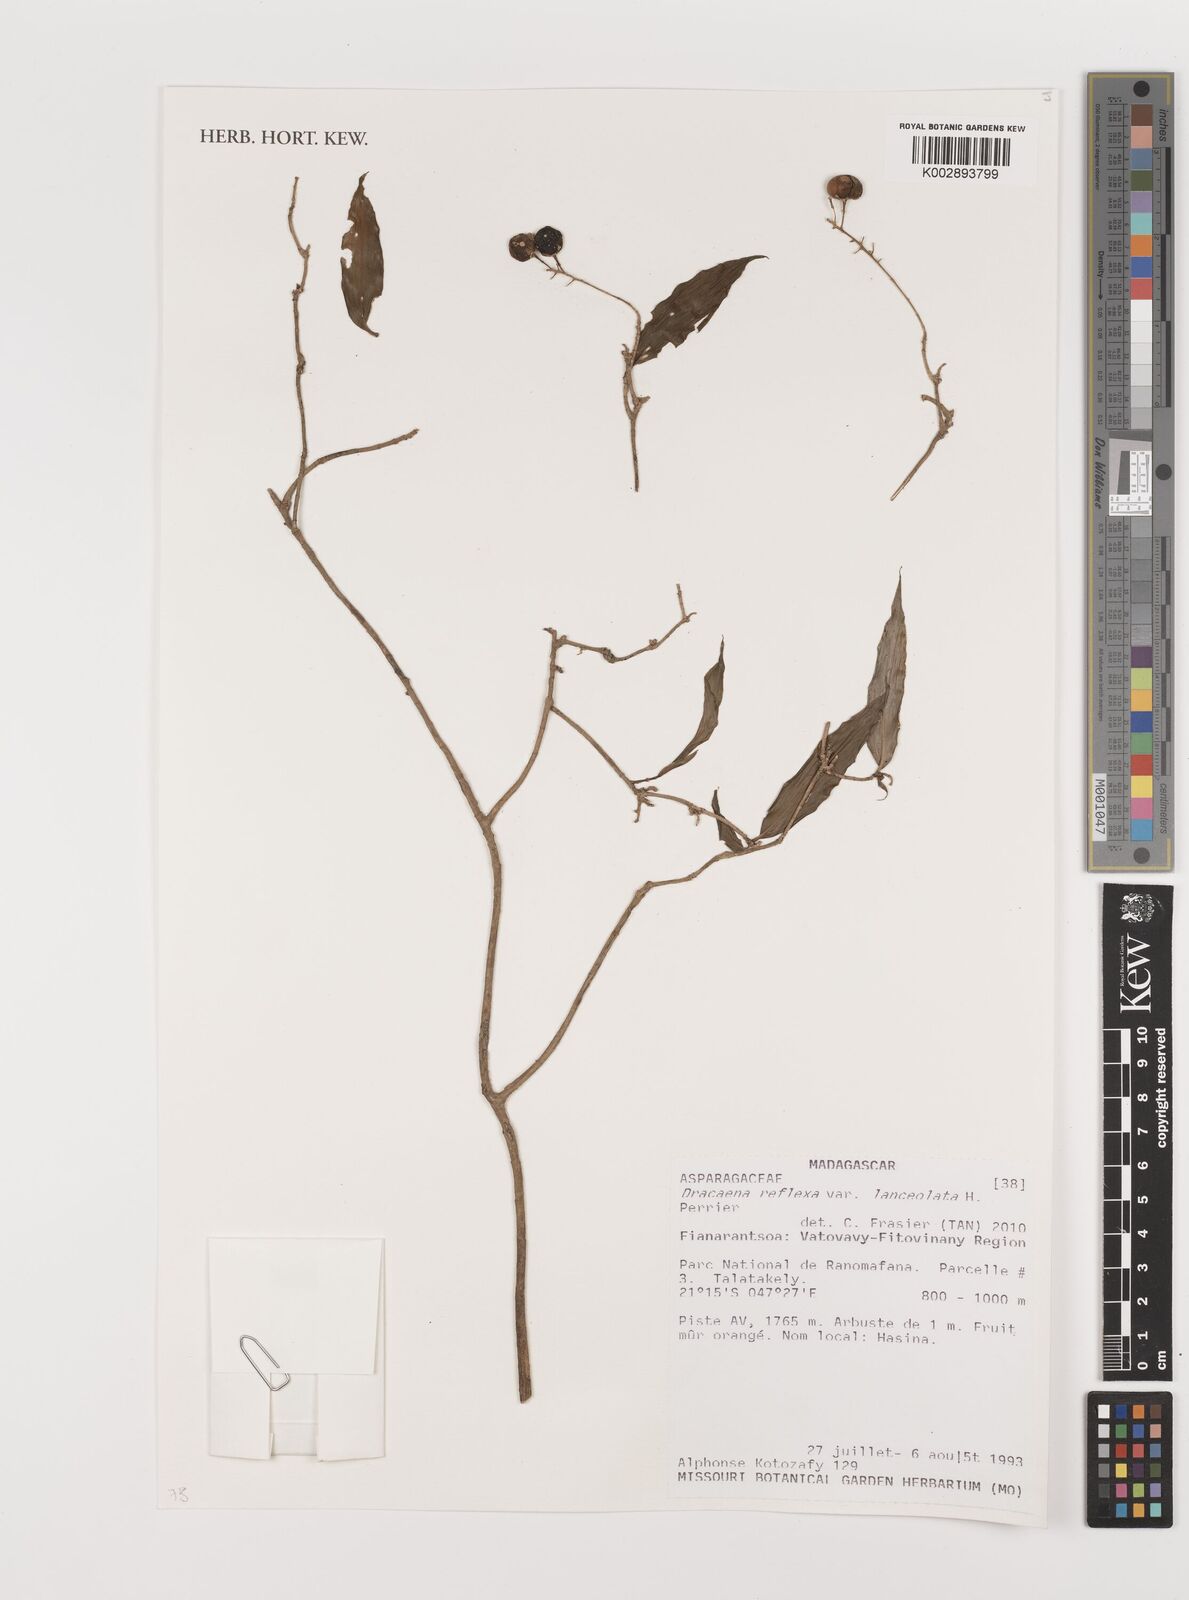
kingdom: Plantae
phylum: Tracheophyta
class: Liliopsida
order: Asparagales
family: Asparagaceae
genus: Dracaena
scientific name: Dracaena reflexa
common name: Song-of-india
